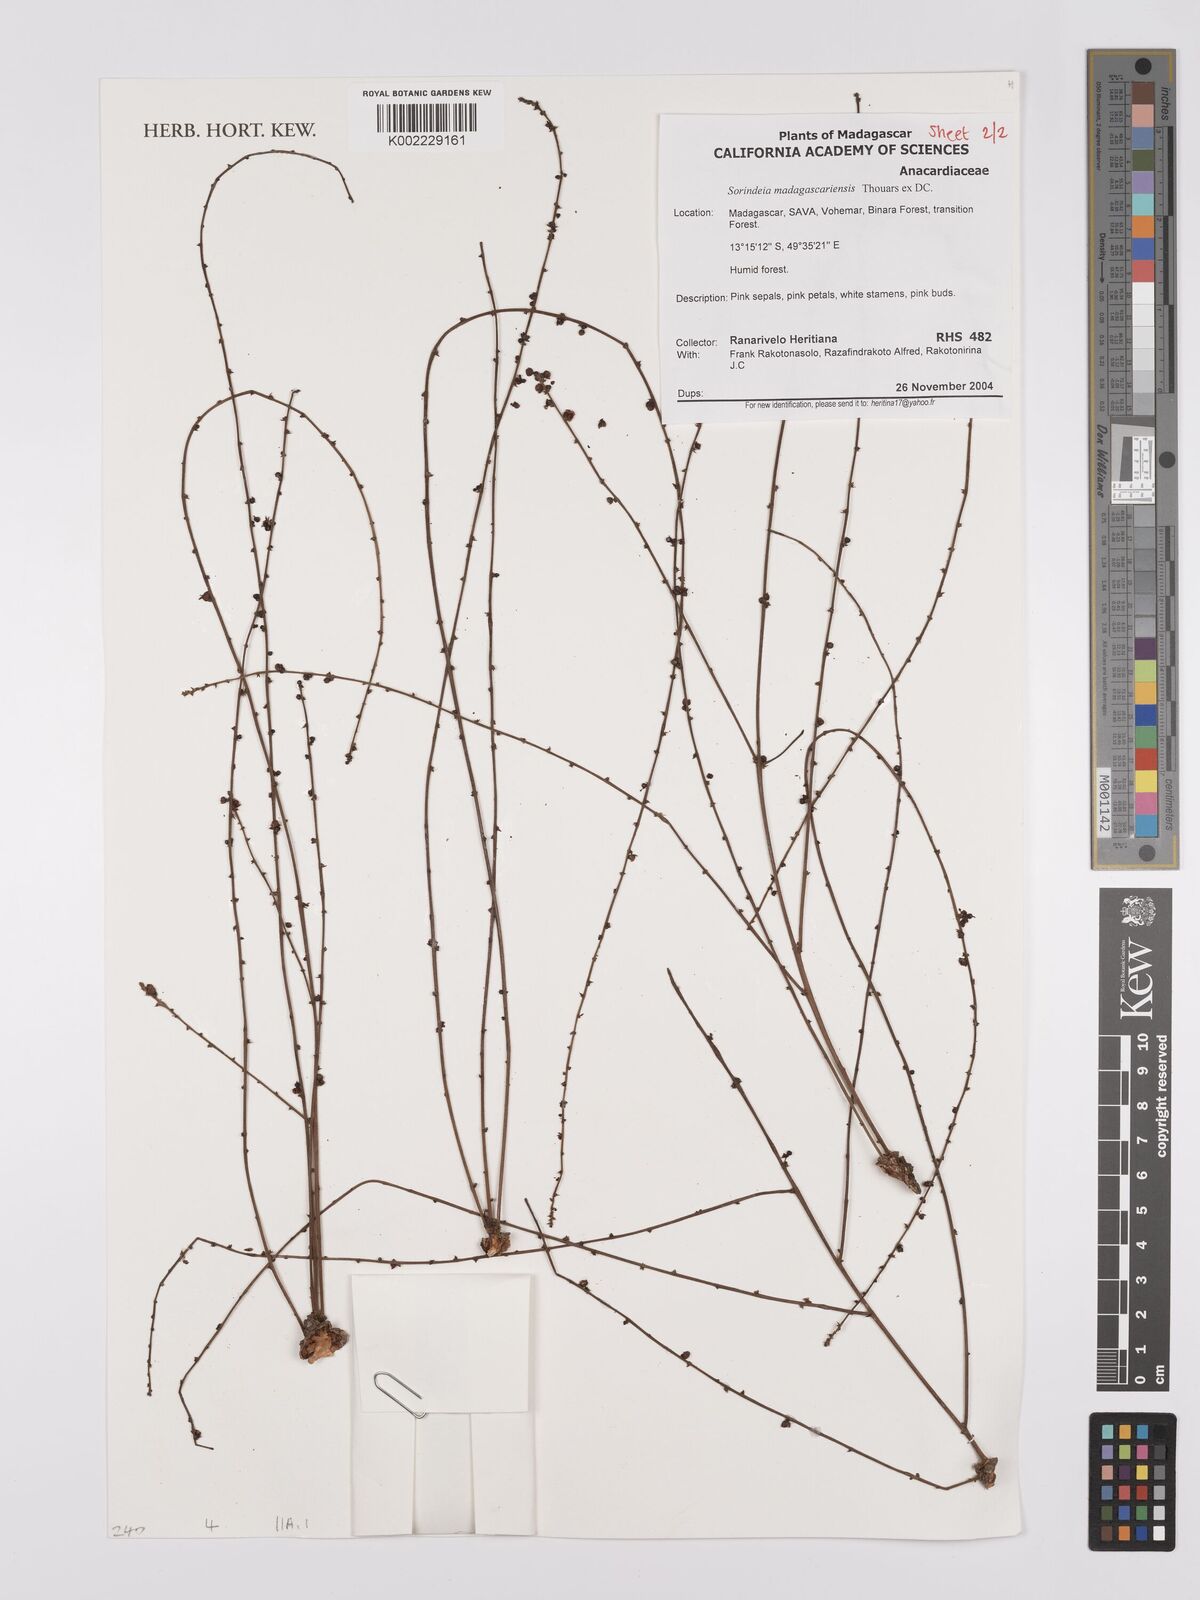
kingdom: Plantae
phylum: Tracheophyta
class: Magnoliopsida
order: Sapindales
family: Anacardiaceae
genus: Sorindeia
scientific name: Sorindeia madagascariensis
